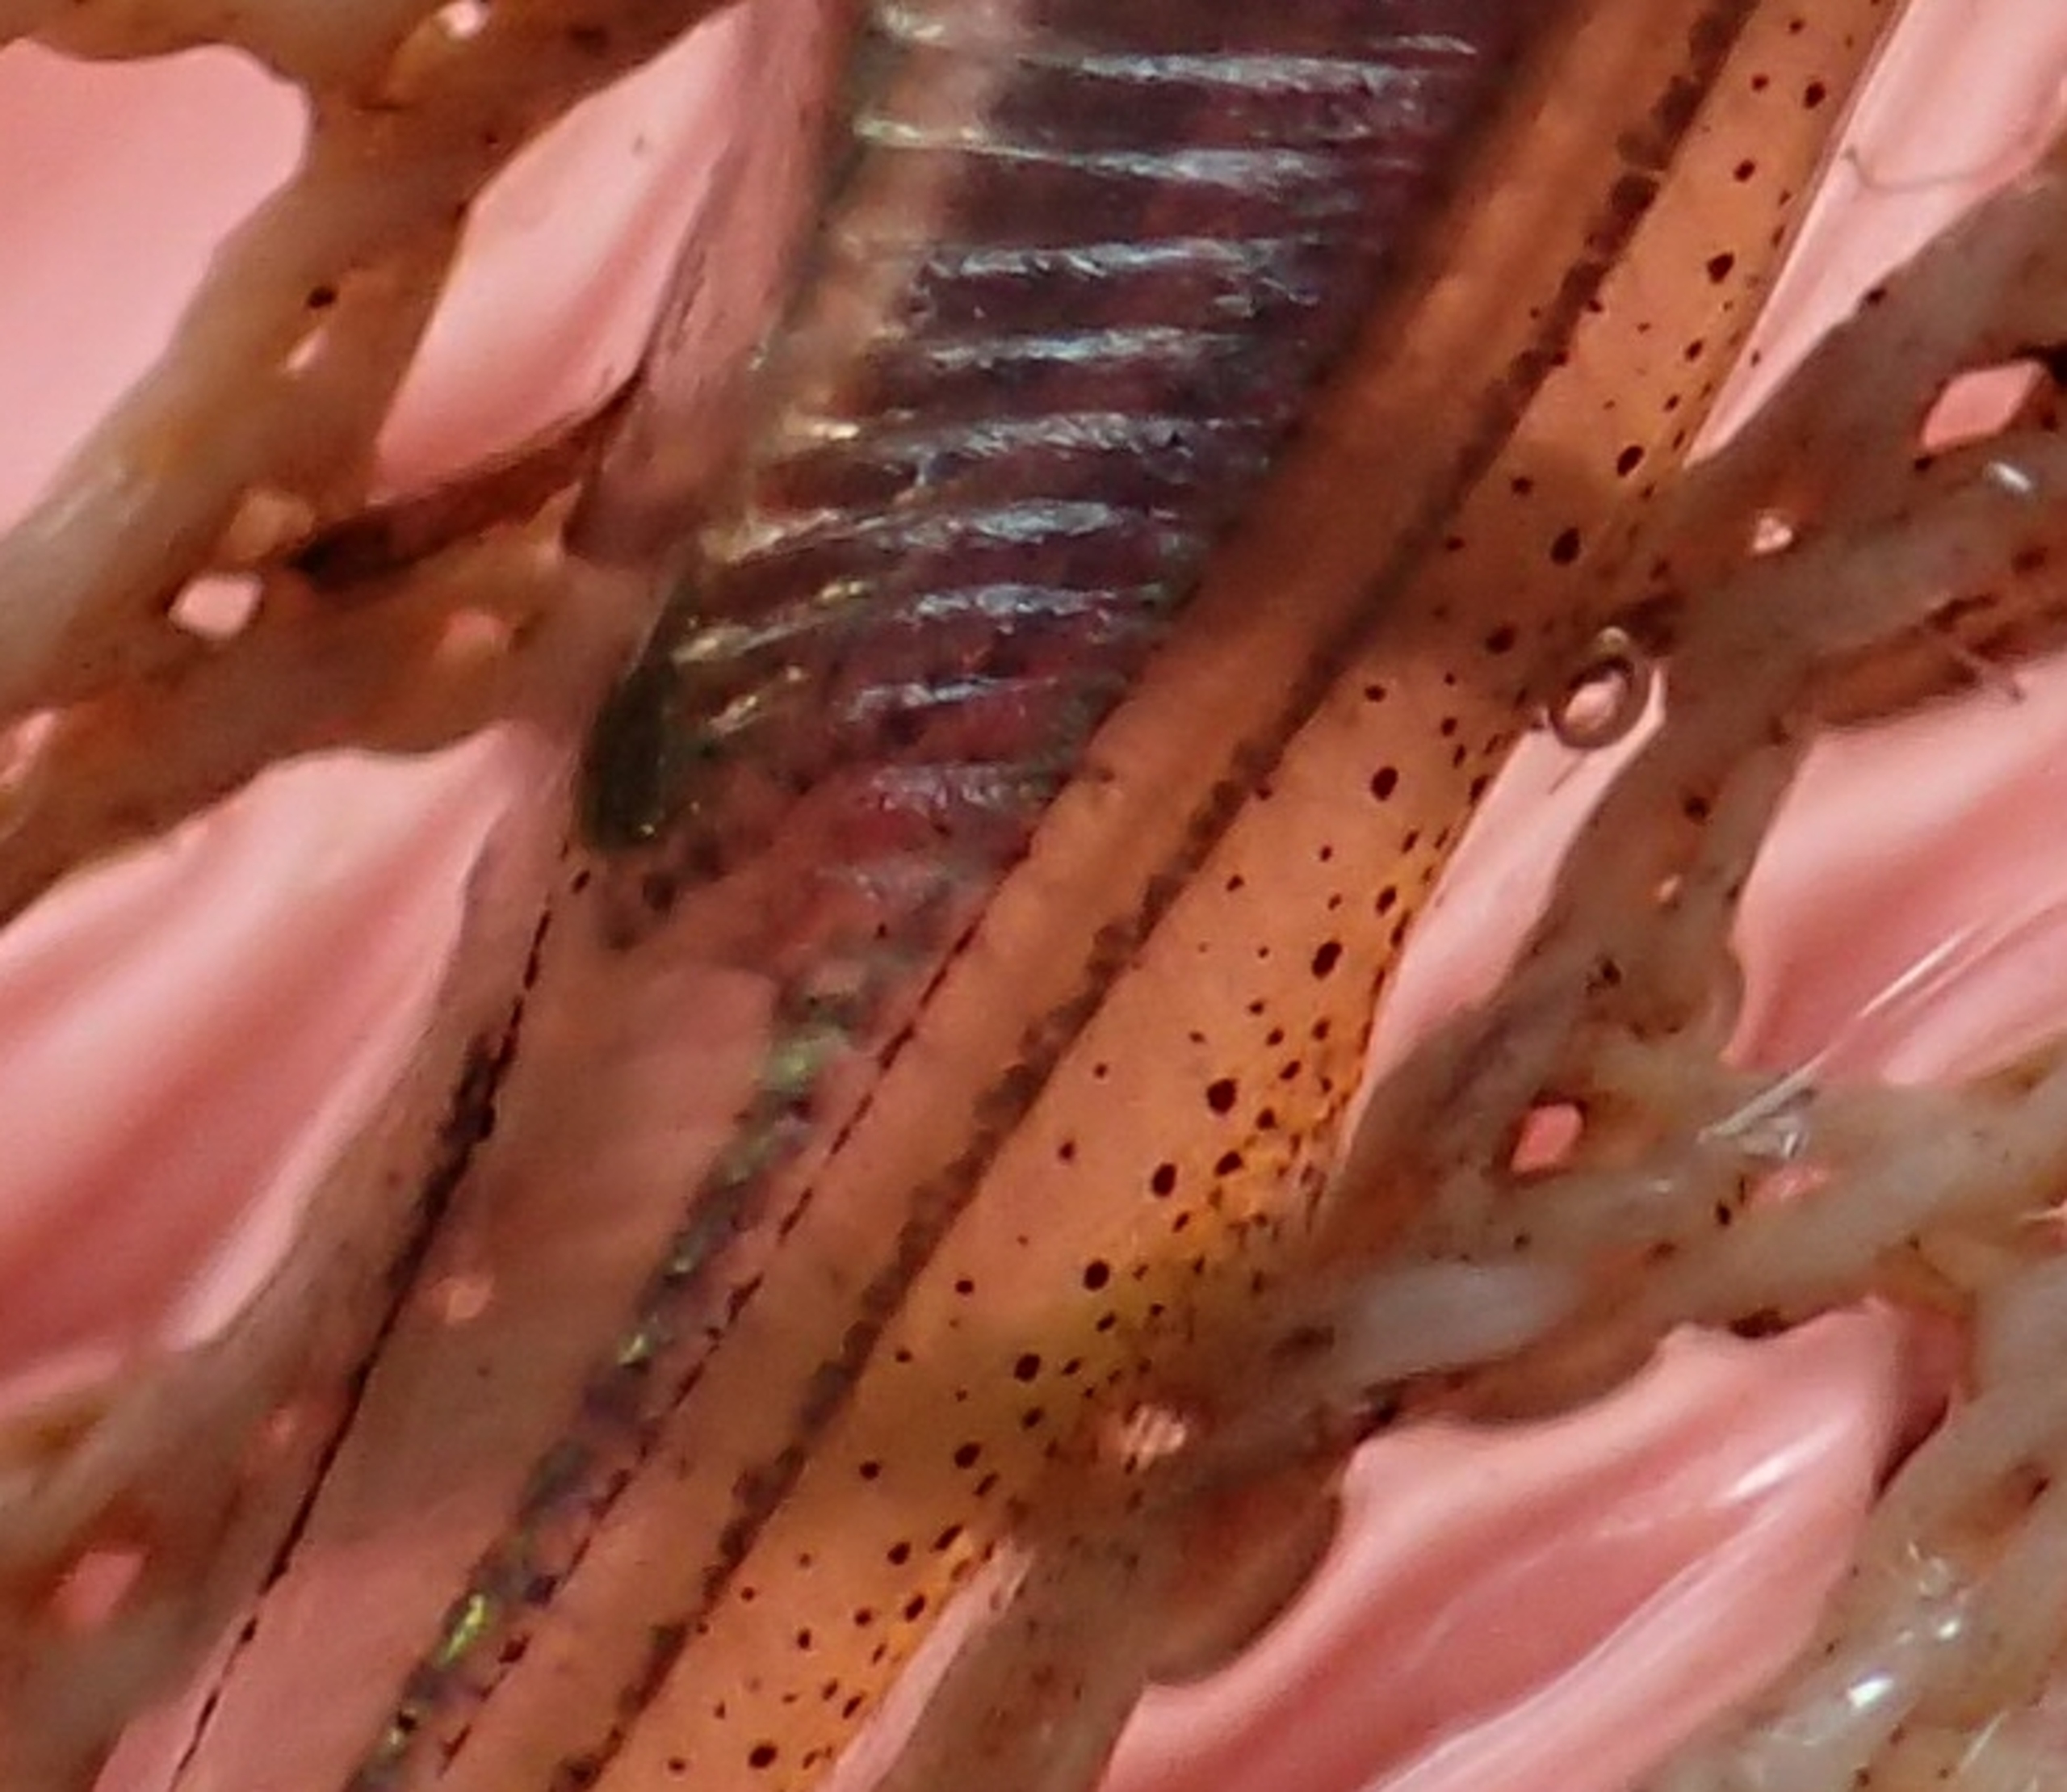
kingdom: Animalia
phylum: Chordata
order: Cypriniformes
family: Cyprinidae
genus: Leucaspius
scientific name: Leucaspius delineatus
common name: Regnløje
